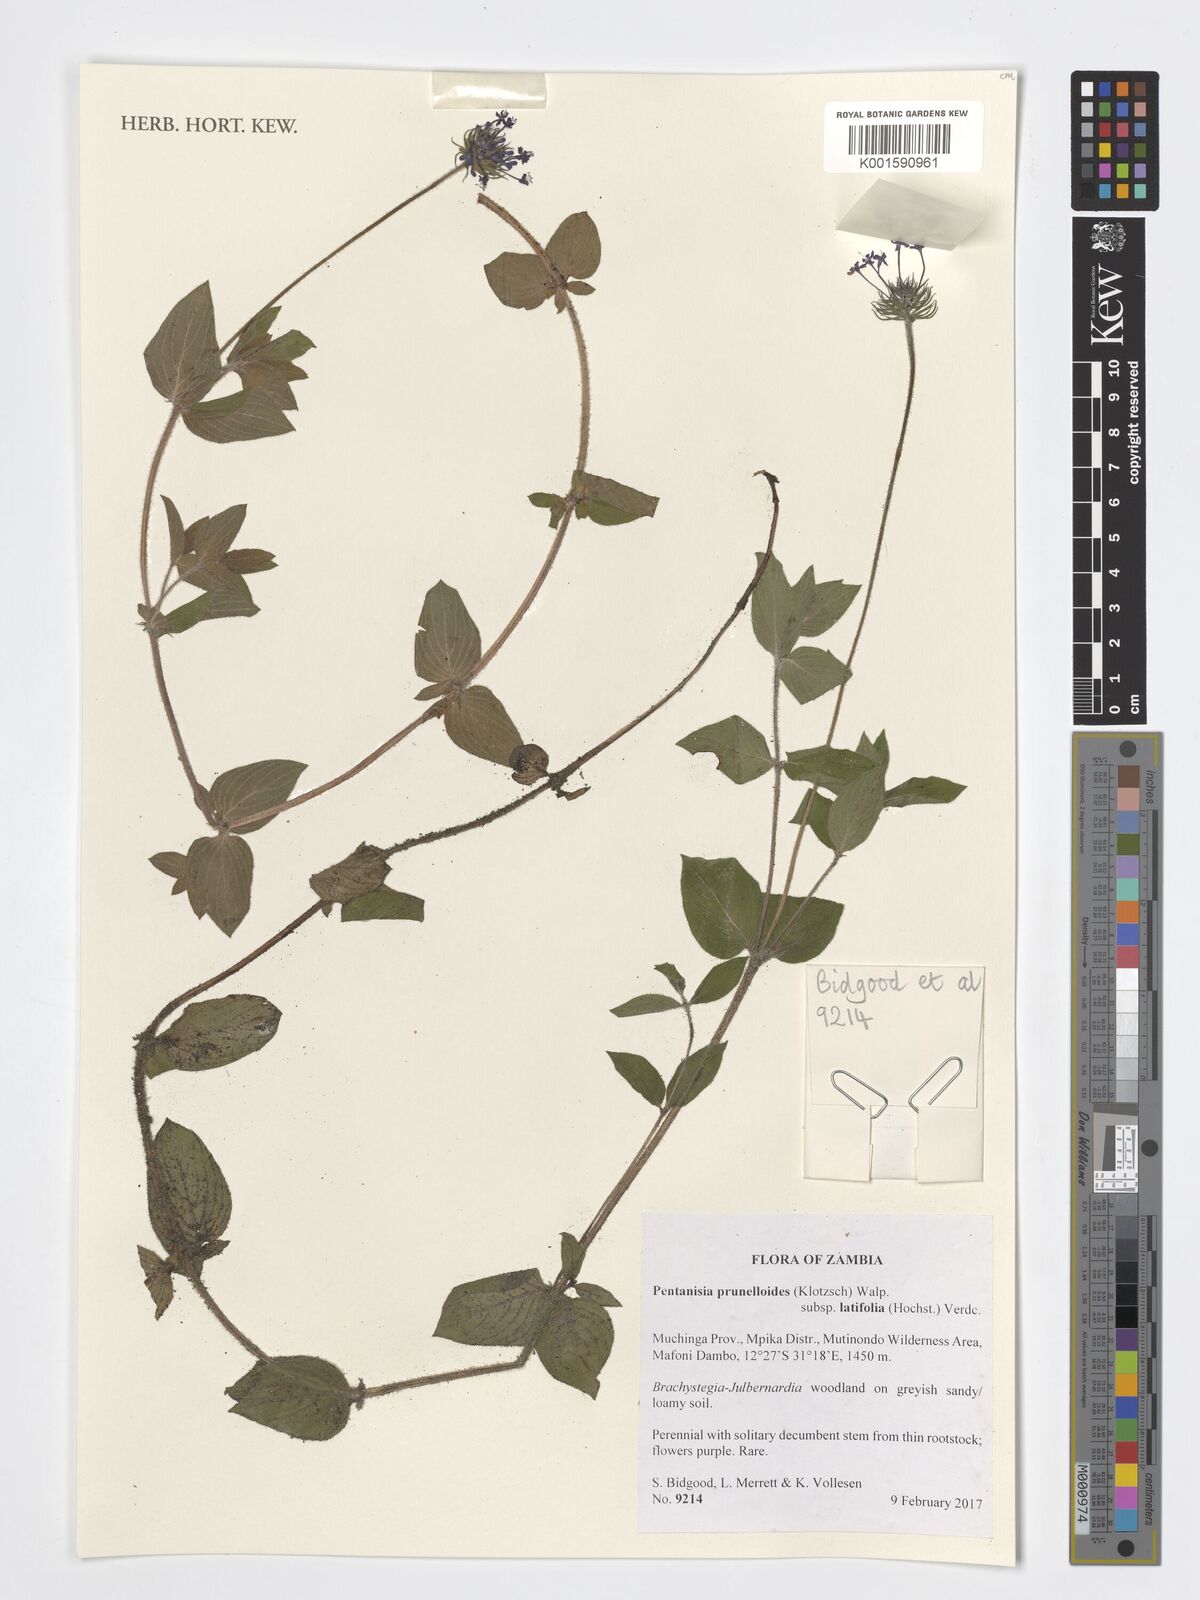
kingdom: Plantae
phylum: Tracheophyta
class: Magnoliopsida
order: Gentianales
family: Rubiaceae
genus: Pentanisia
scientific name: Pentanisia prunelloides
